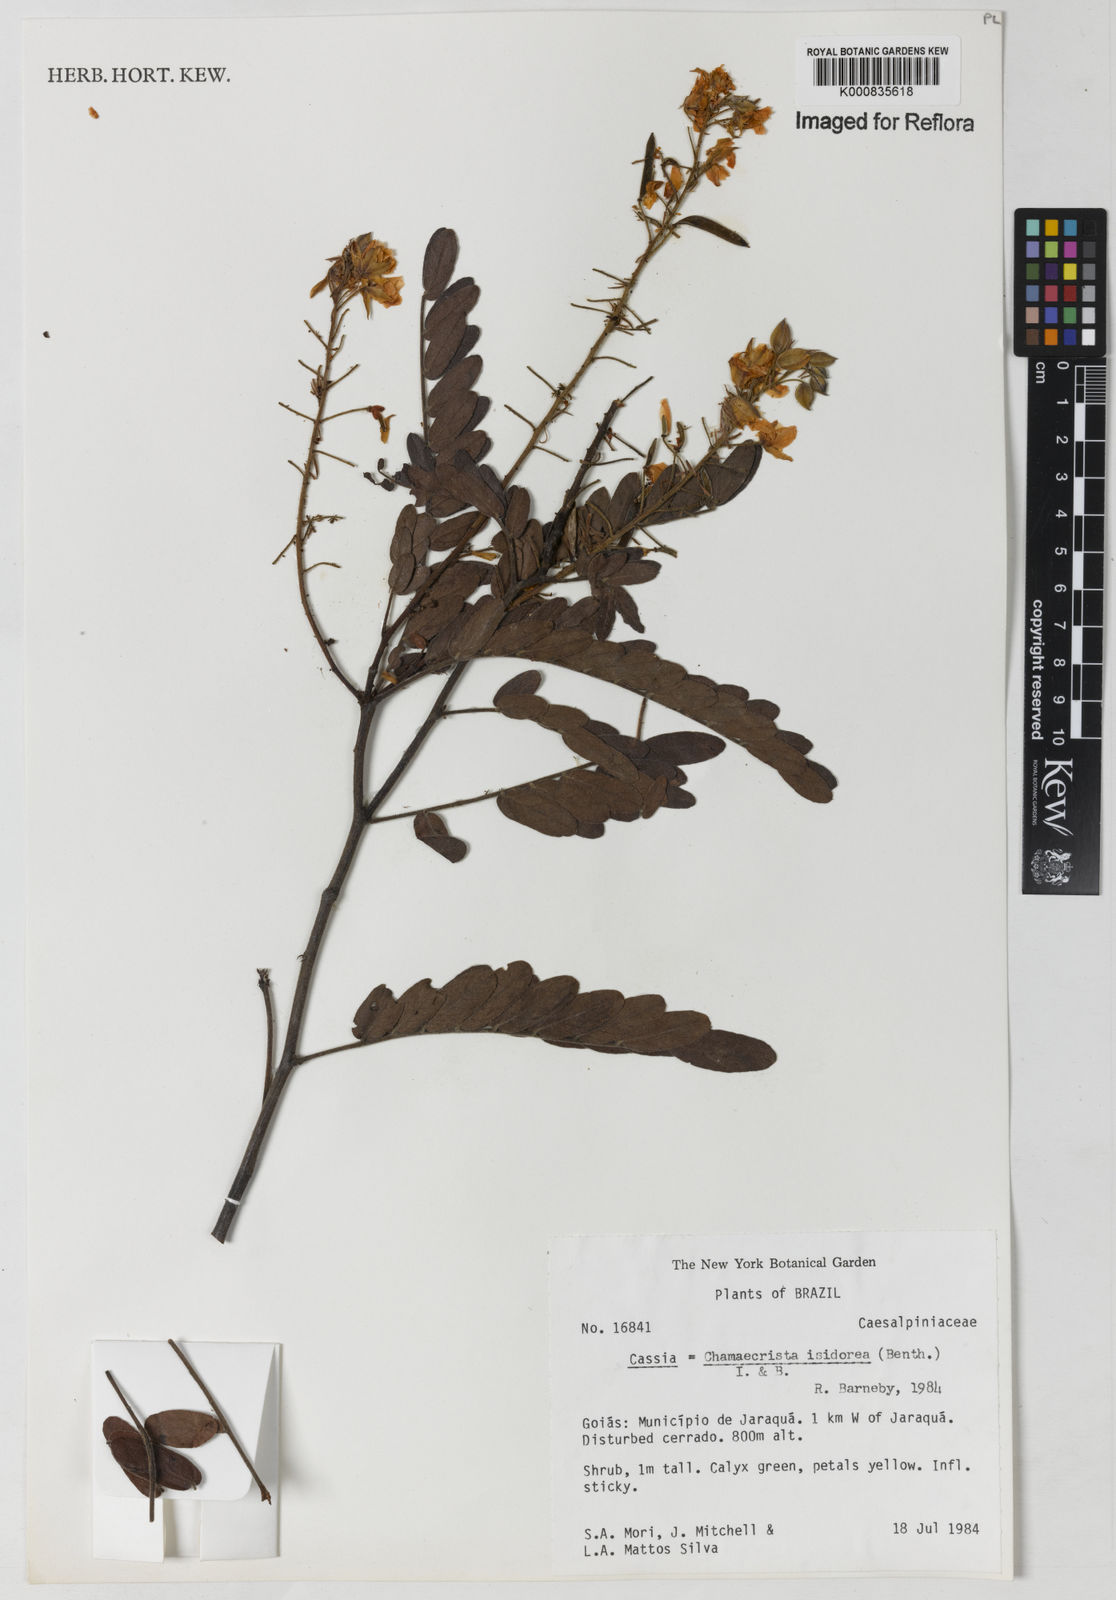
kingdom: Plantae
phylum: Tracheophyta
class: Magnoliopsida
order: Fabales
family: Fabaceae
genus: Chamaecrista
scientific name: Chamaecrista isidorea
